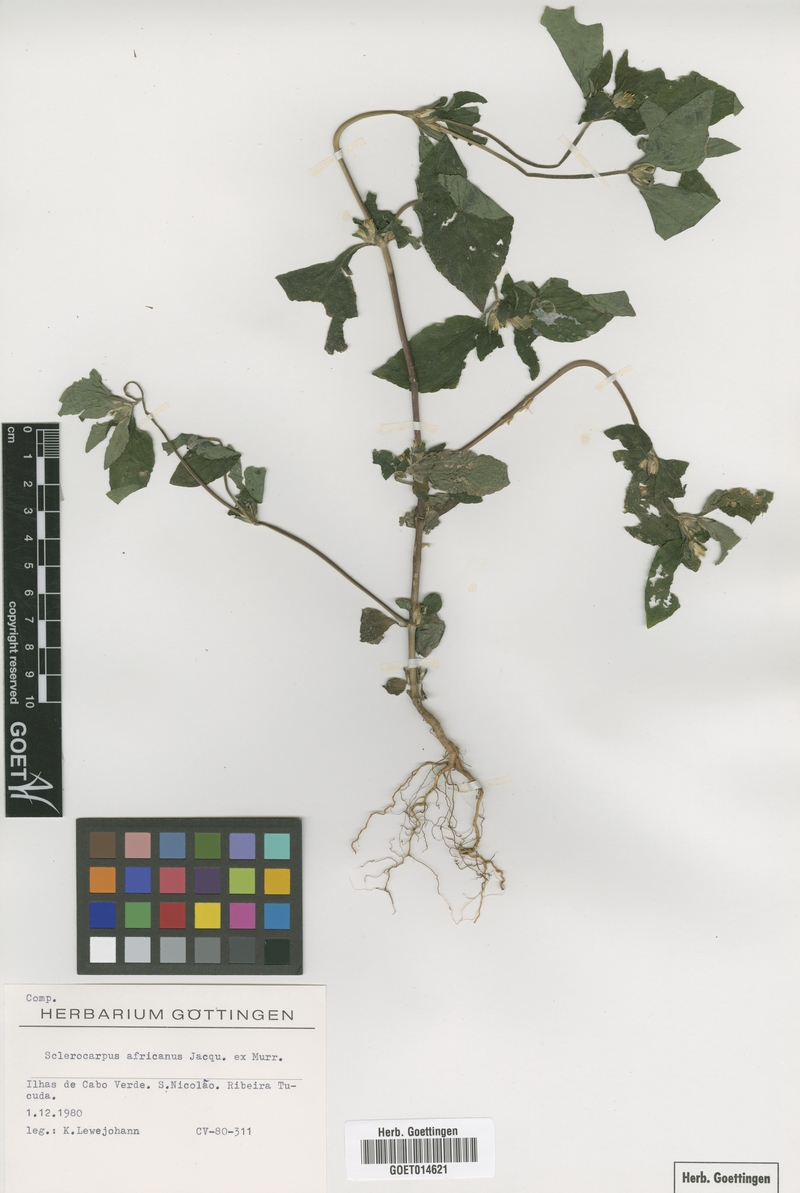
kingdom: Plantae
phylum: Tracheophyta
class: Magnoliopsida
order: Asterales
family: Asteraceae
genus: Sclerocarpus
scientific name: Sclerocarpus africanus
